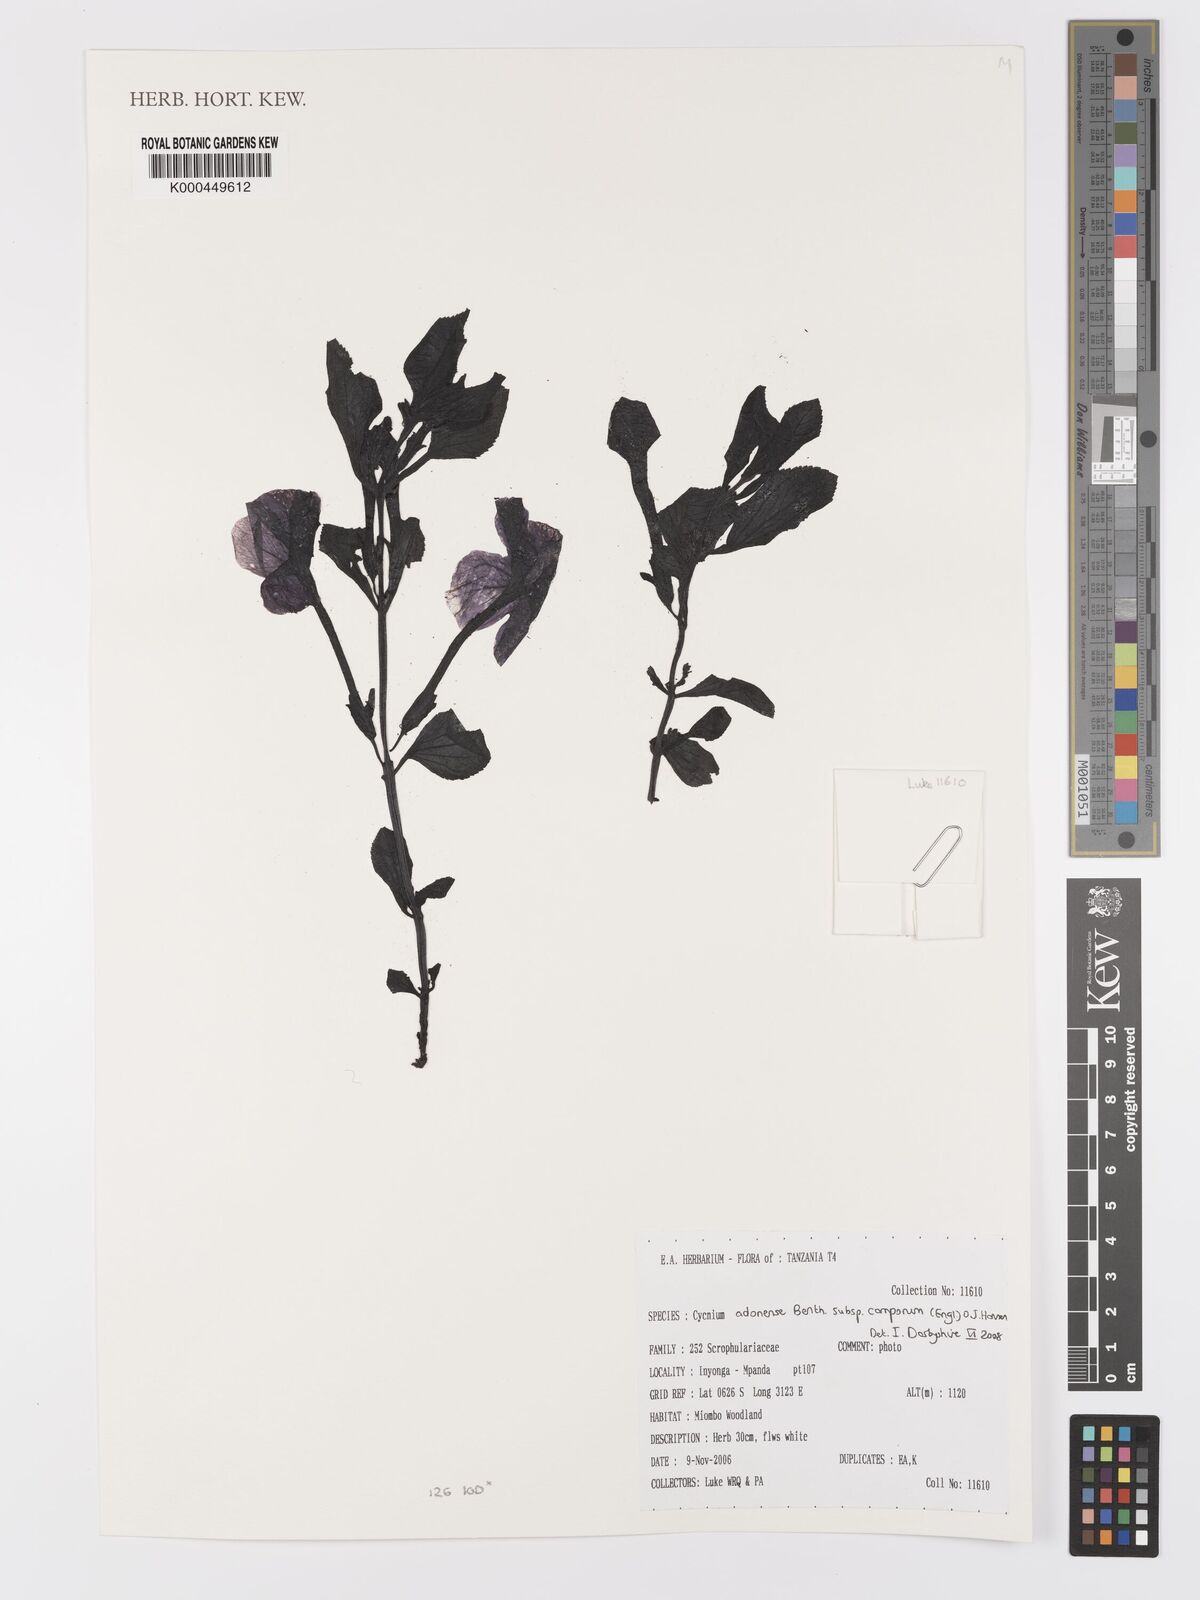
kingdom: Plantae
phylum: Tracheophyta
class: Magnoliopsida
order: Lamiales
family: Orobanchaceae
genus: Cycnium
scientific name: Cycnium adoense
